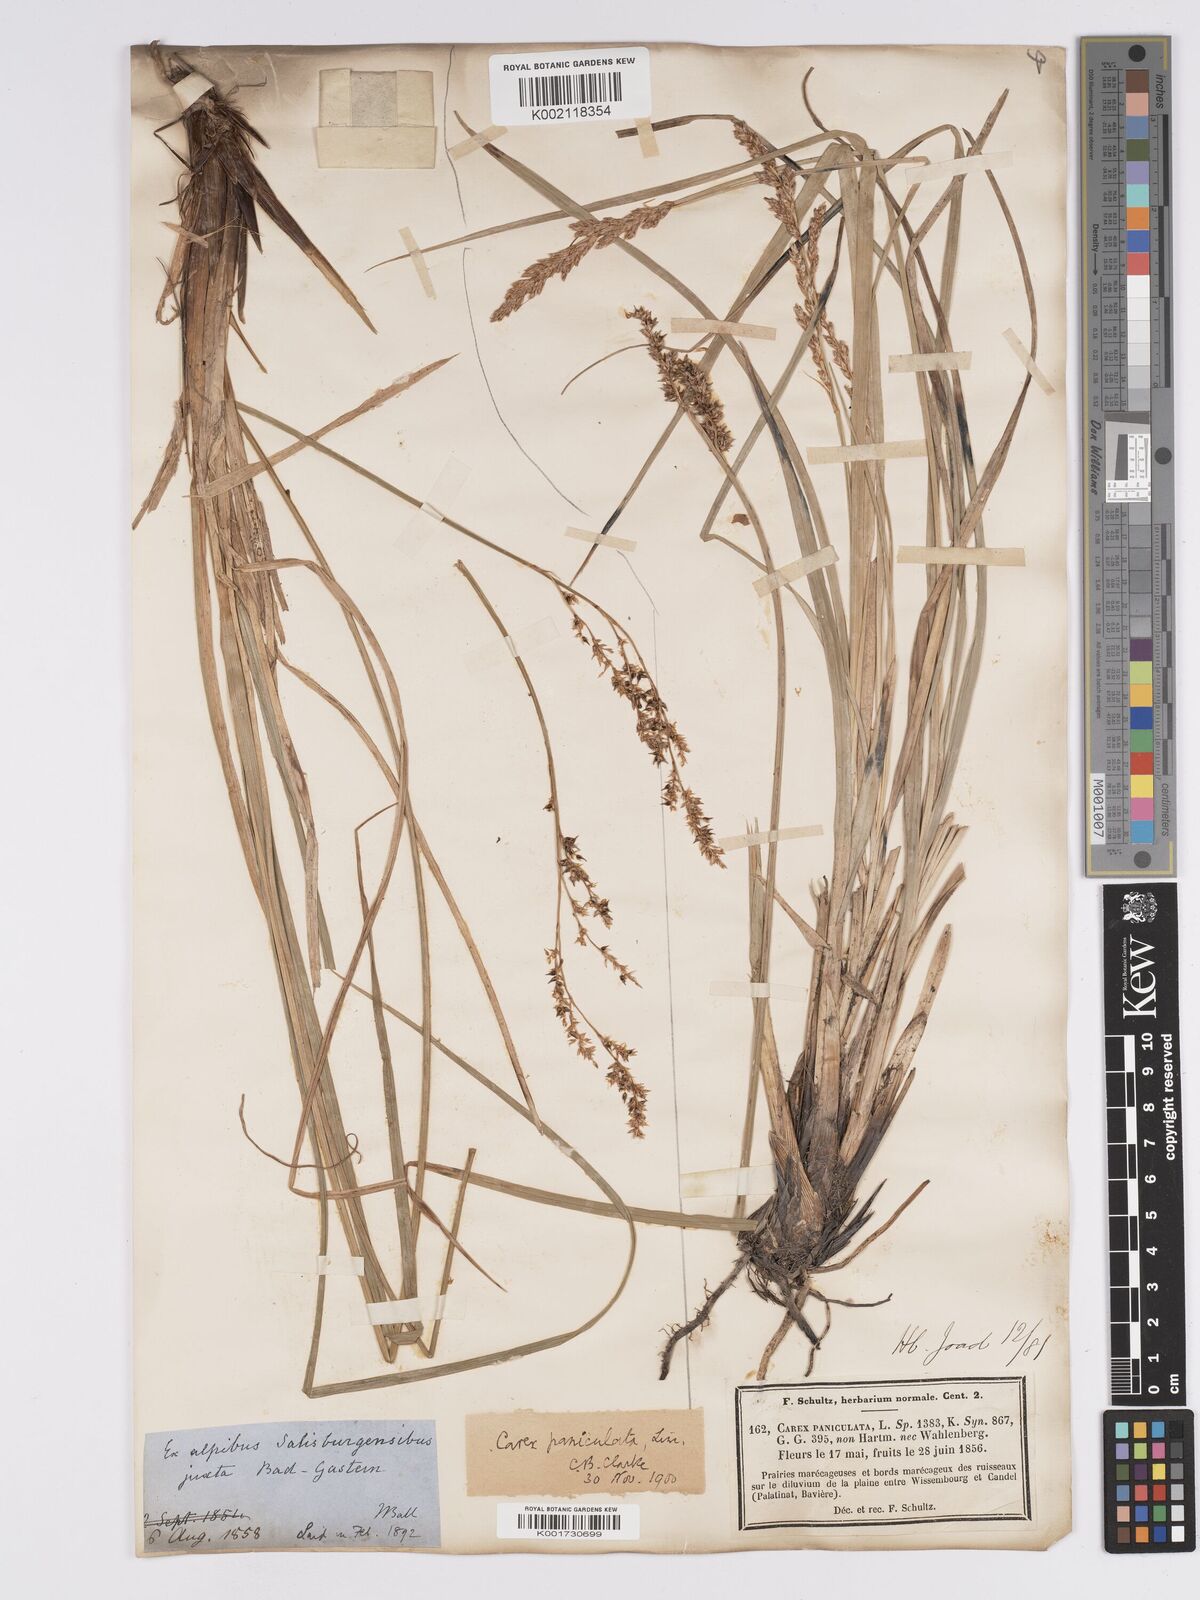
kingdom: Plantae
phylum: Tracheophyta
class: Liliopsida
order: Poales
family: Cyperaceae
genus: Carex
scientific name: Carex paniculata
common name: Greater tussock-sedge
